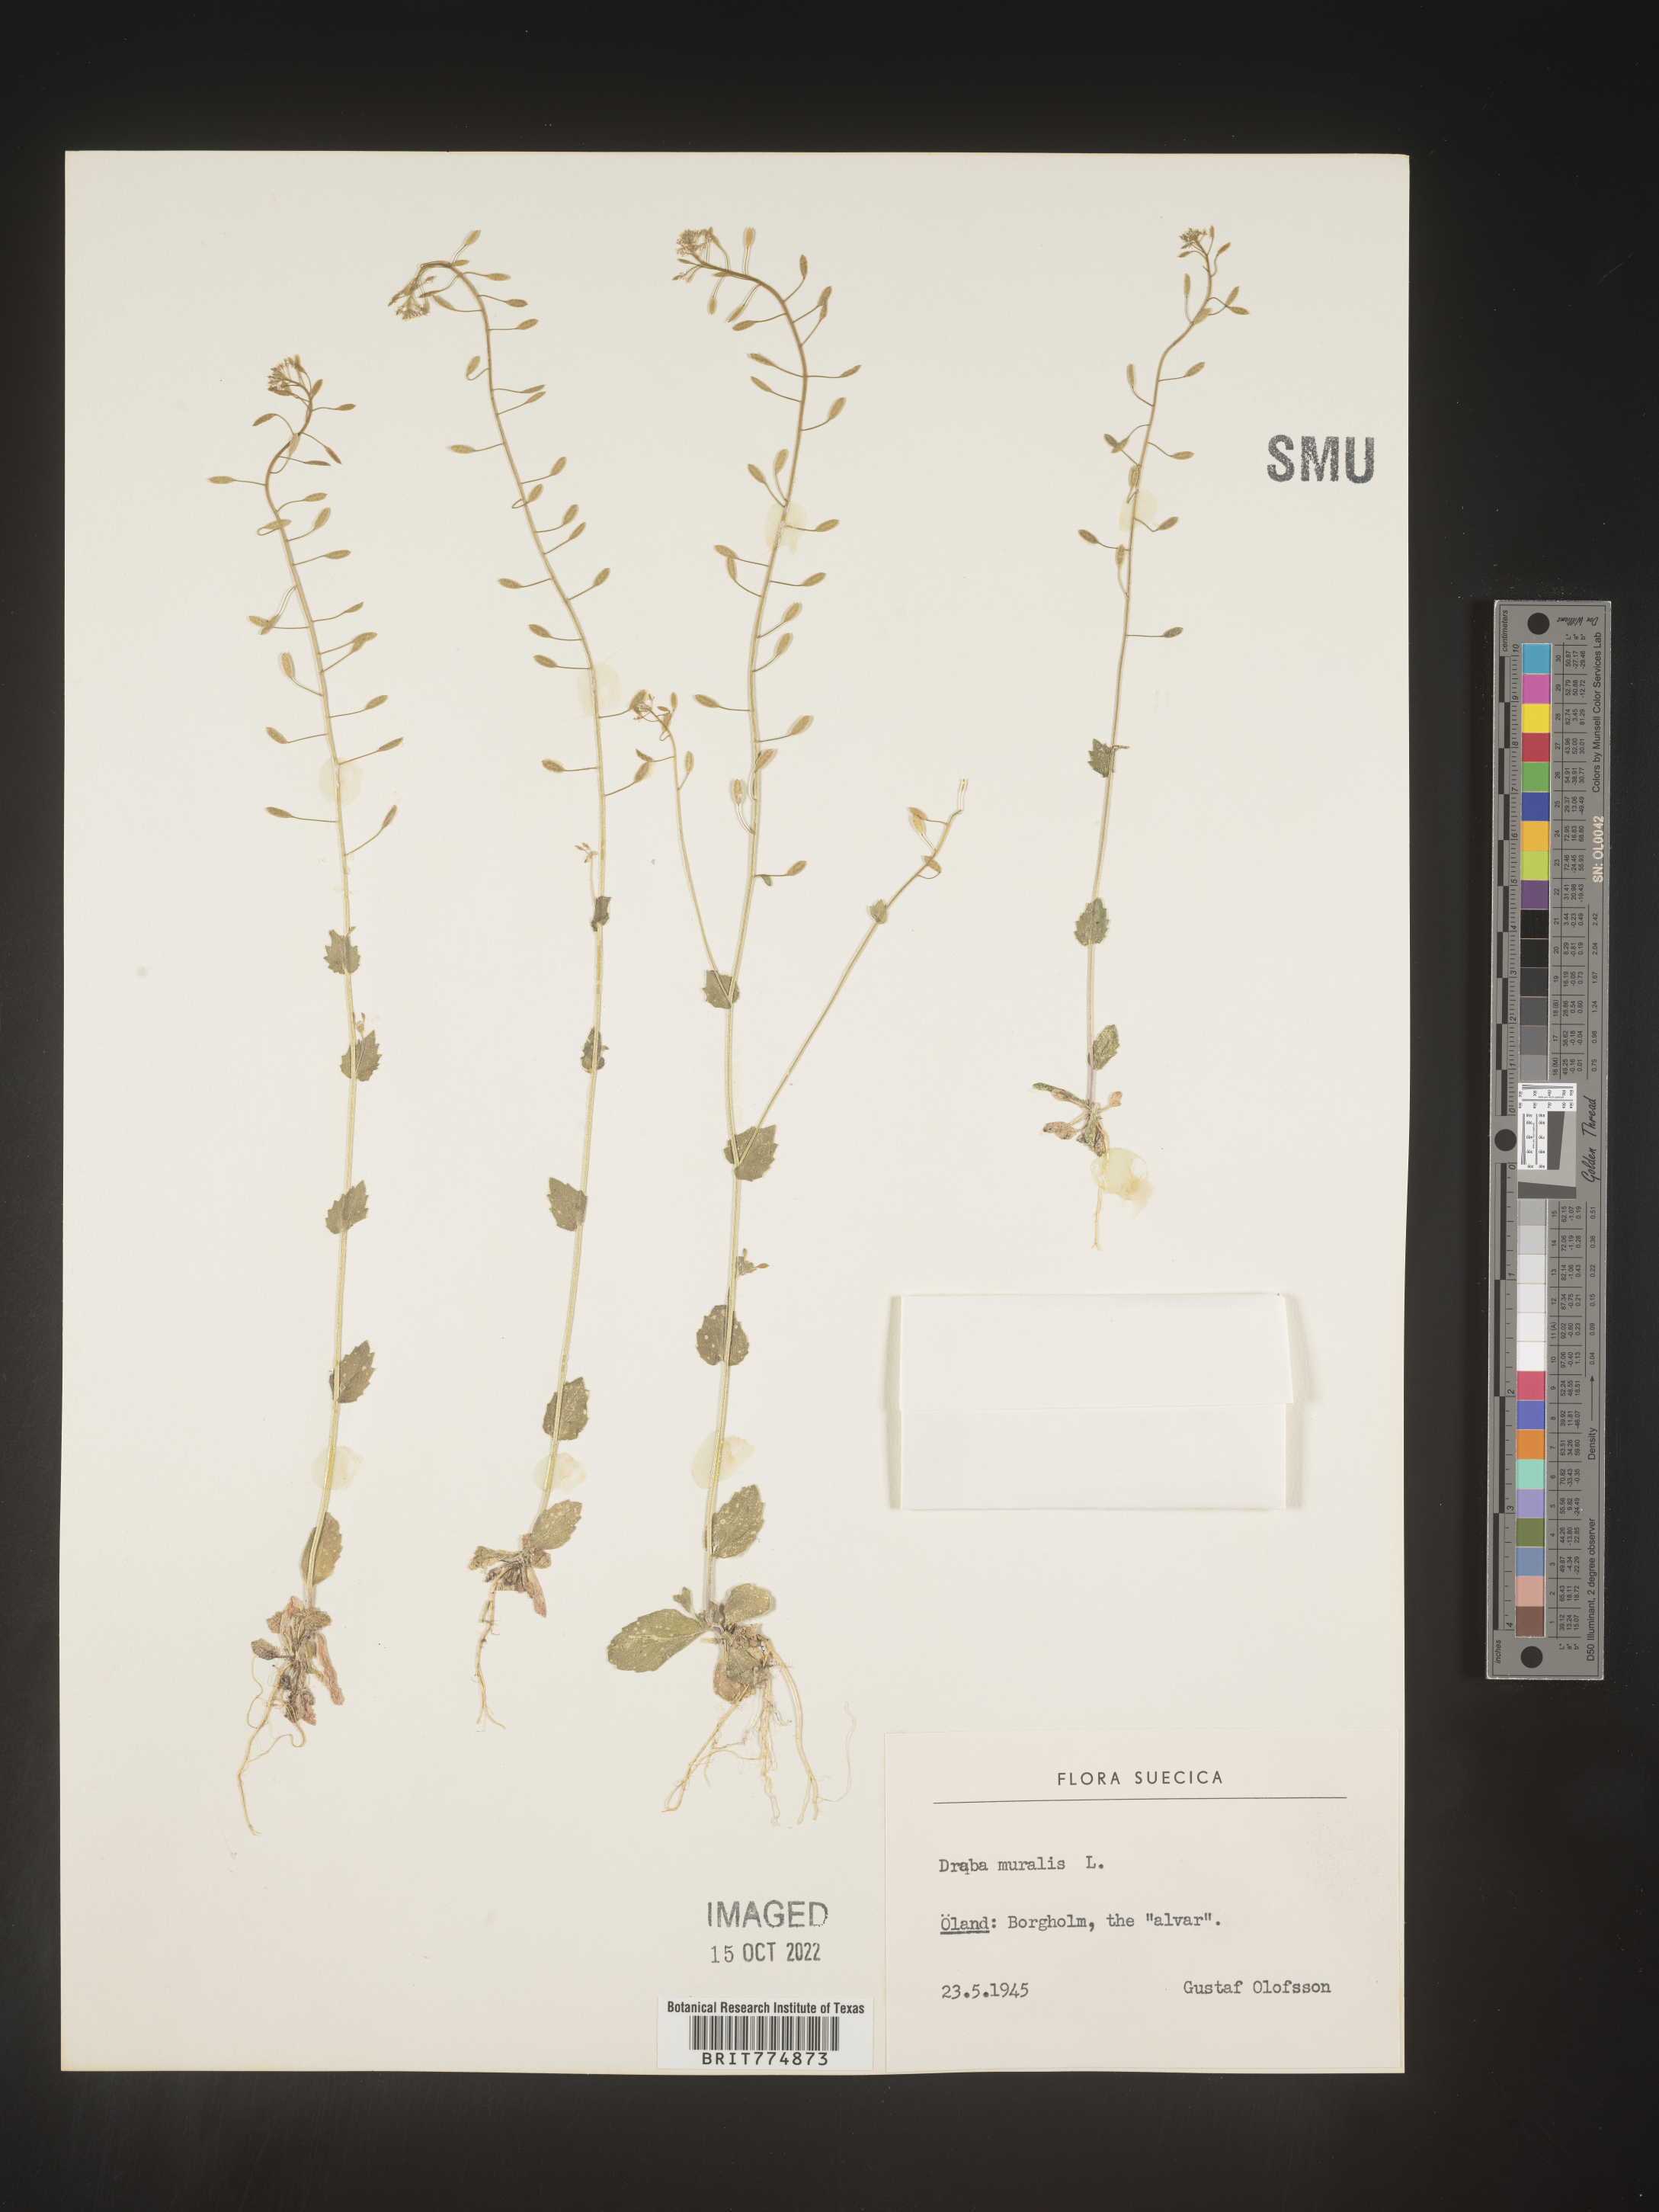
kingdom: Plantae
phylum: Tracheophyta
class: Magnoliopsida
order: Brassicales
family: Brassicaceae
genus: Draba
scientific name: Draba
